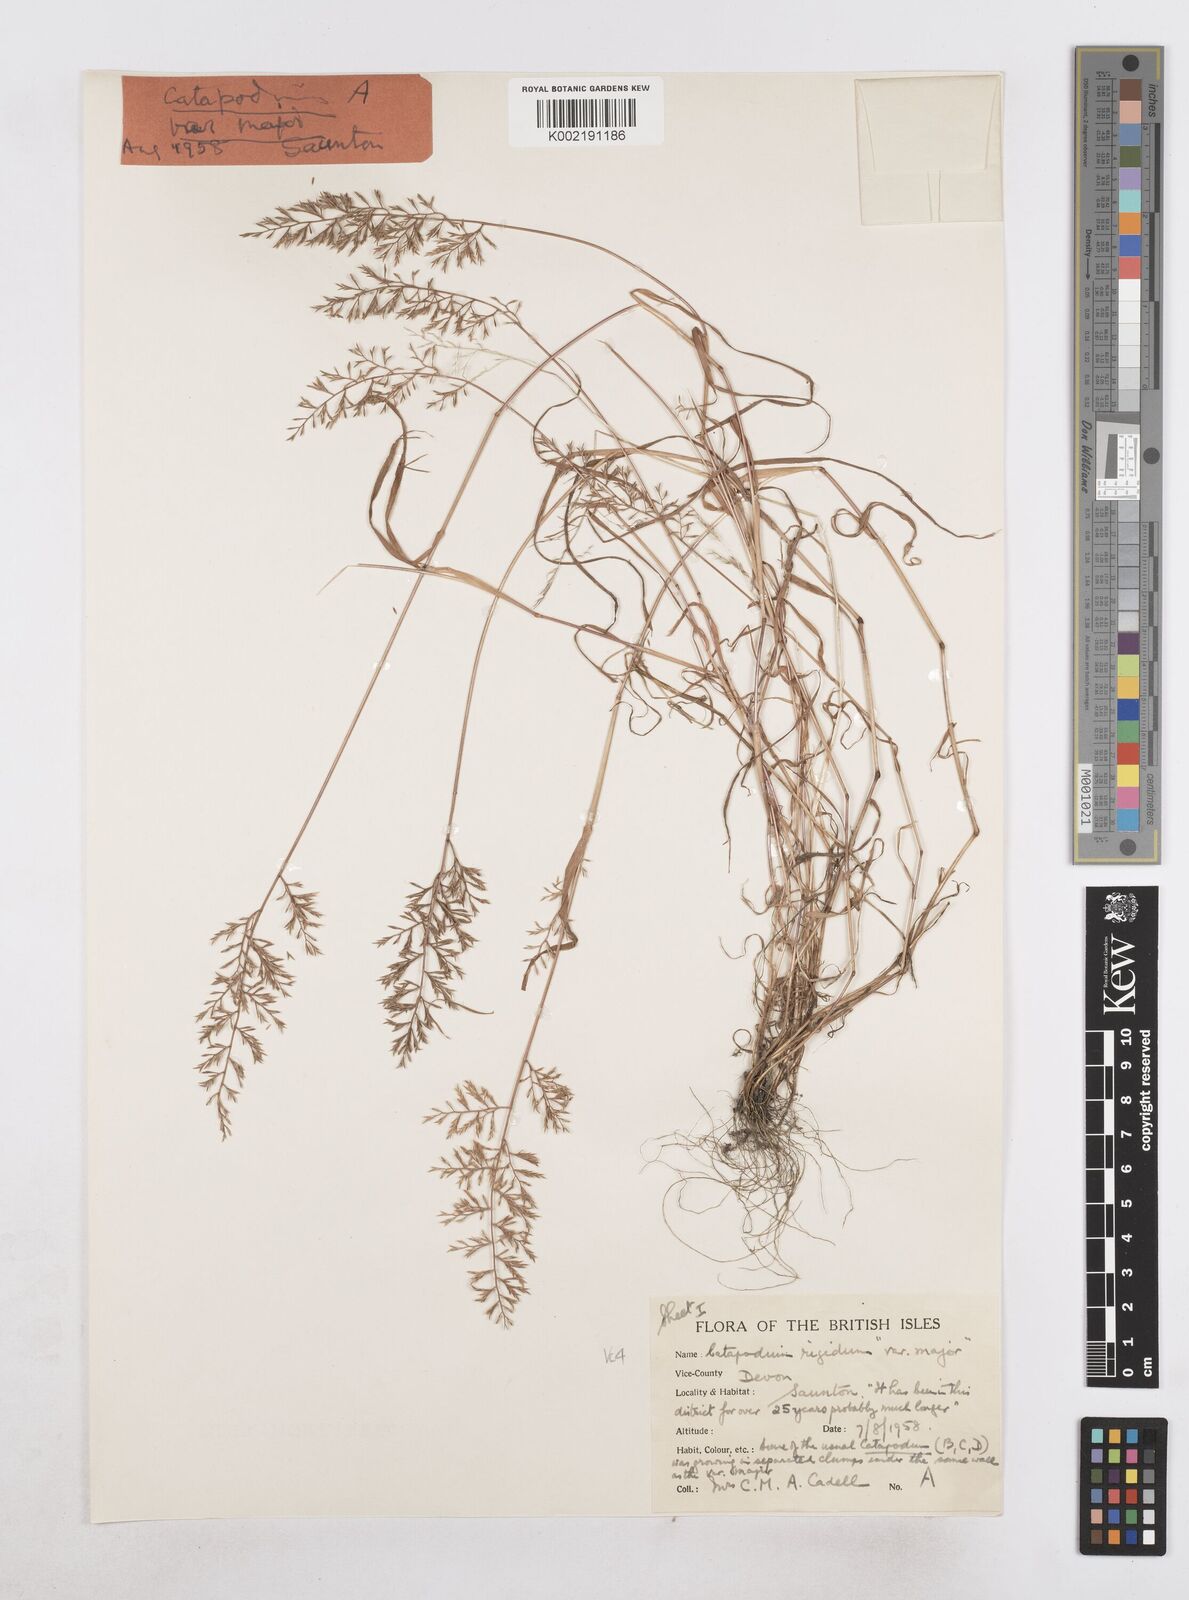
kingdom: Plantae
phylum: Tracheophyta
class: Liliopsida
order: Poales
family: Poaceae
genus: Catapodium
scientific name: Catapodium rigidum
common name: Fern-grass
